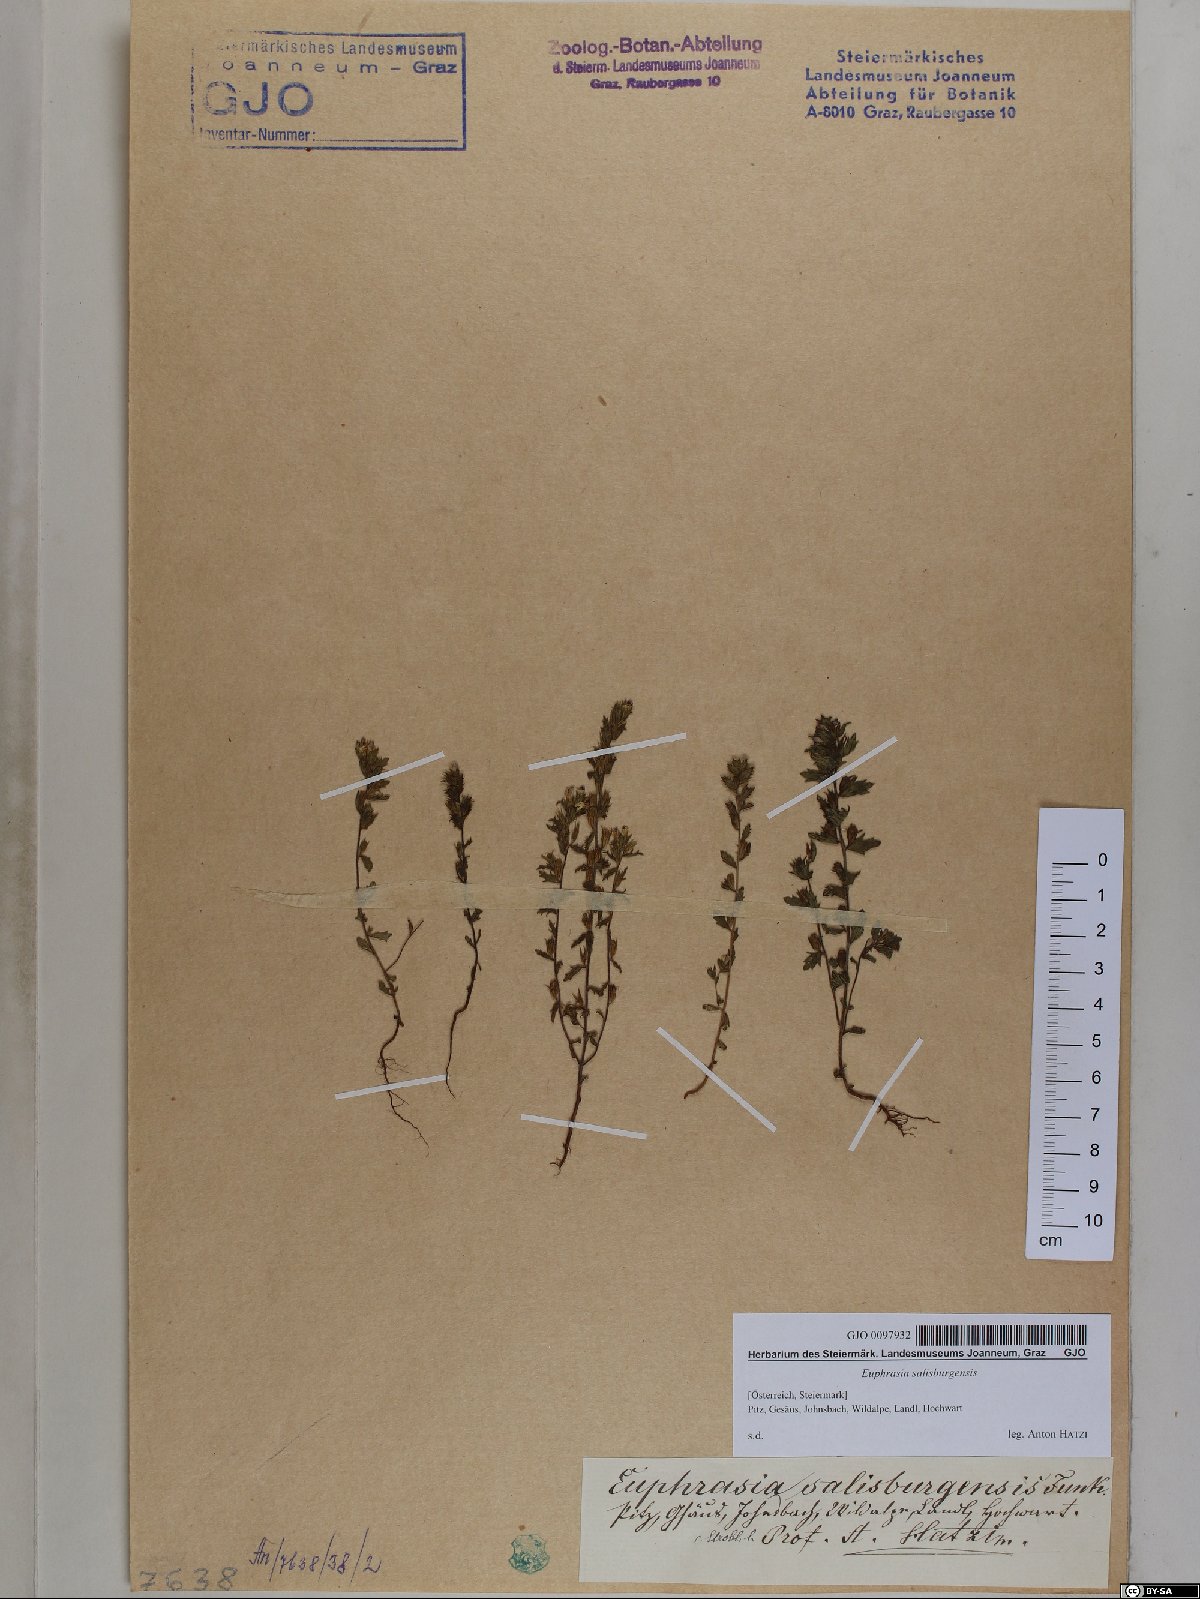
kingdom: Plantae
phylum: Tracheophyta
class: Magnoliopsida
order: Lamiales
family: Orobanchaceae
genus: Euphrasia
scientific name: Euphrasia salisburgensis
